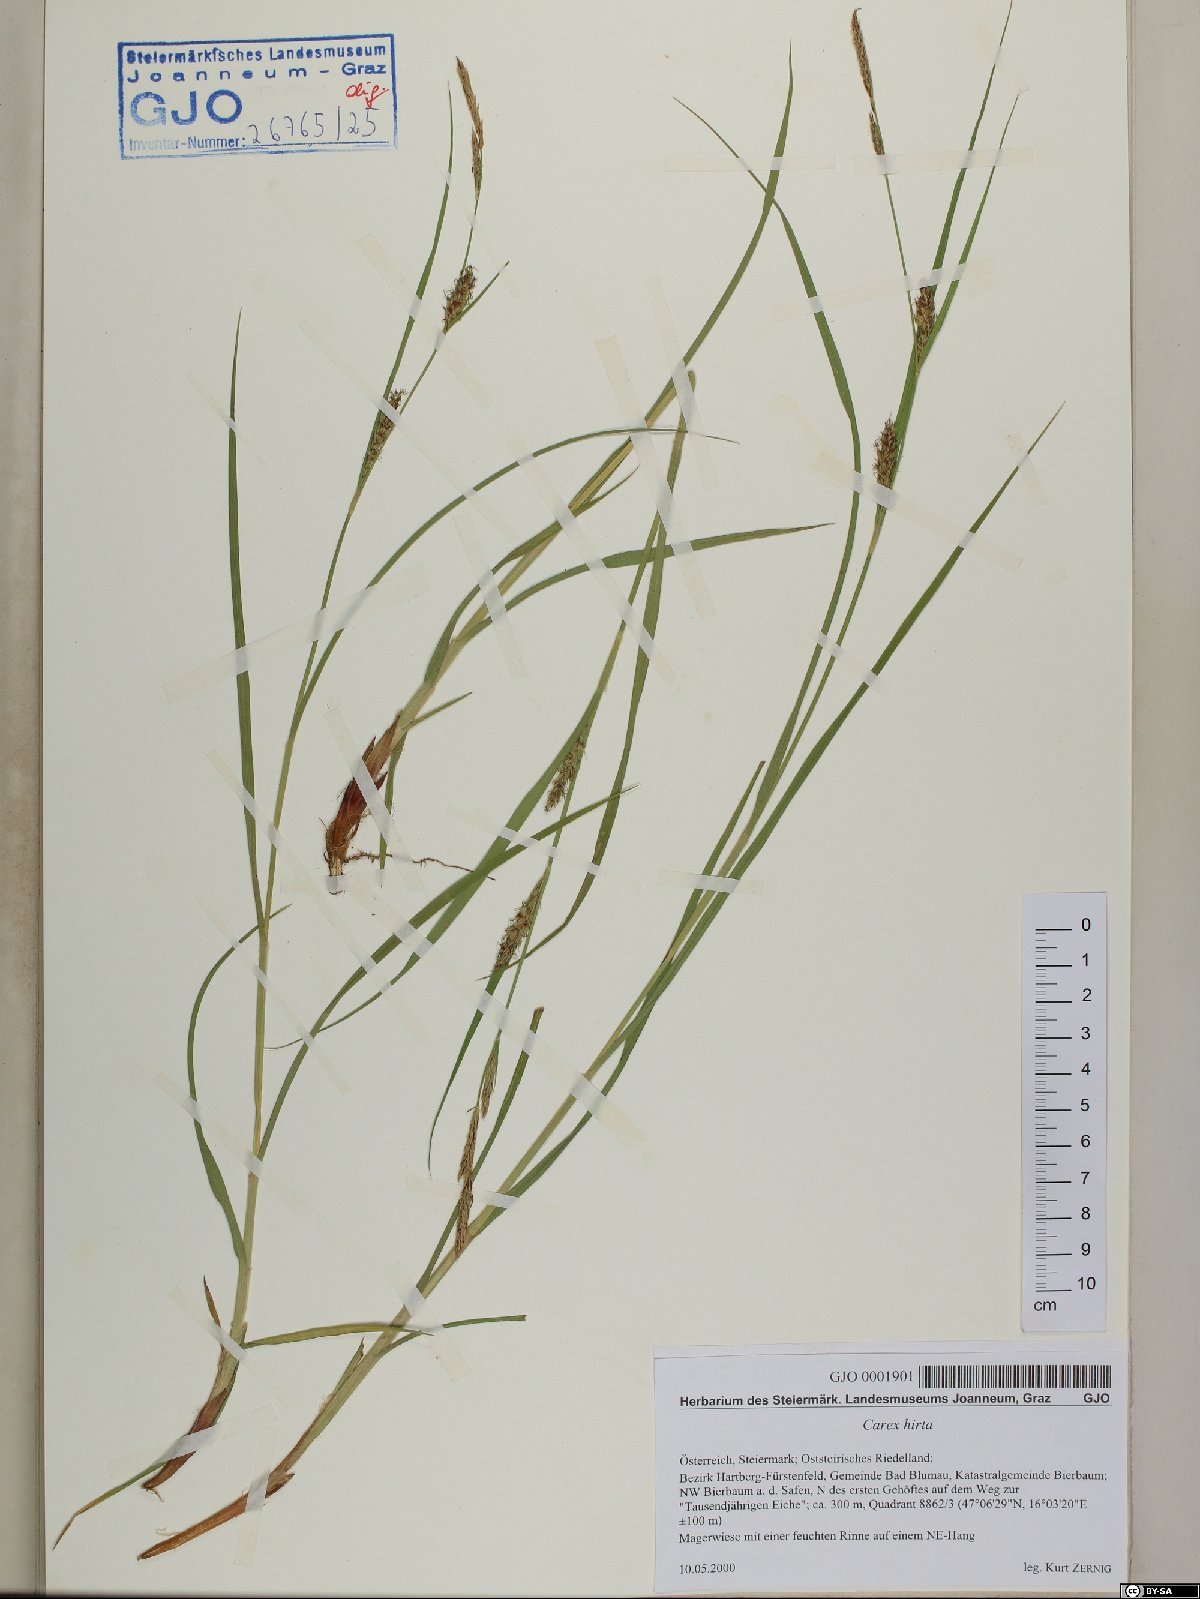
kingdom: Plantae
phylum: Tracheophyta
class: Liliopsida
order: Poales
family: Cyperaceae
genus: Carex
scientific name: Carex hirta
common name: Hairy sedge
